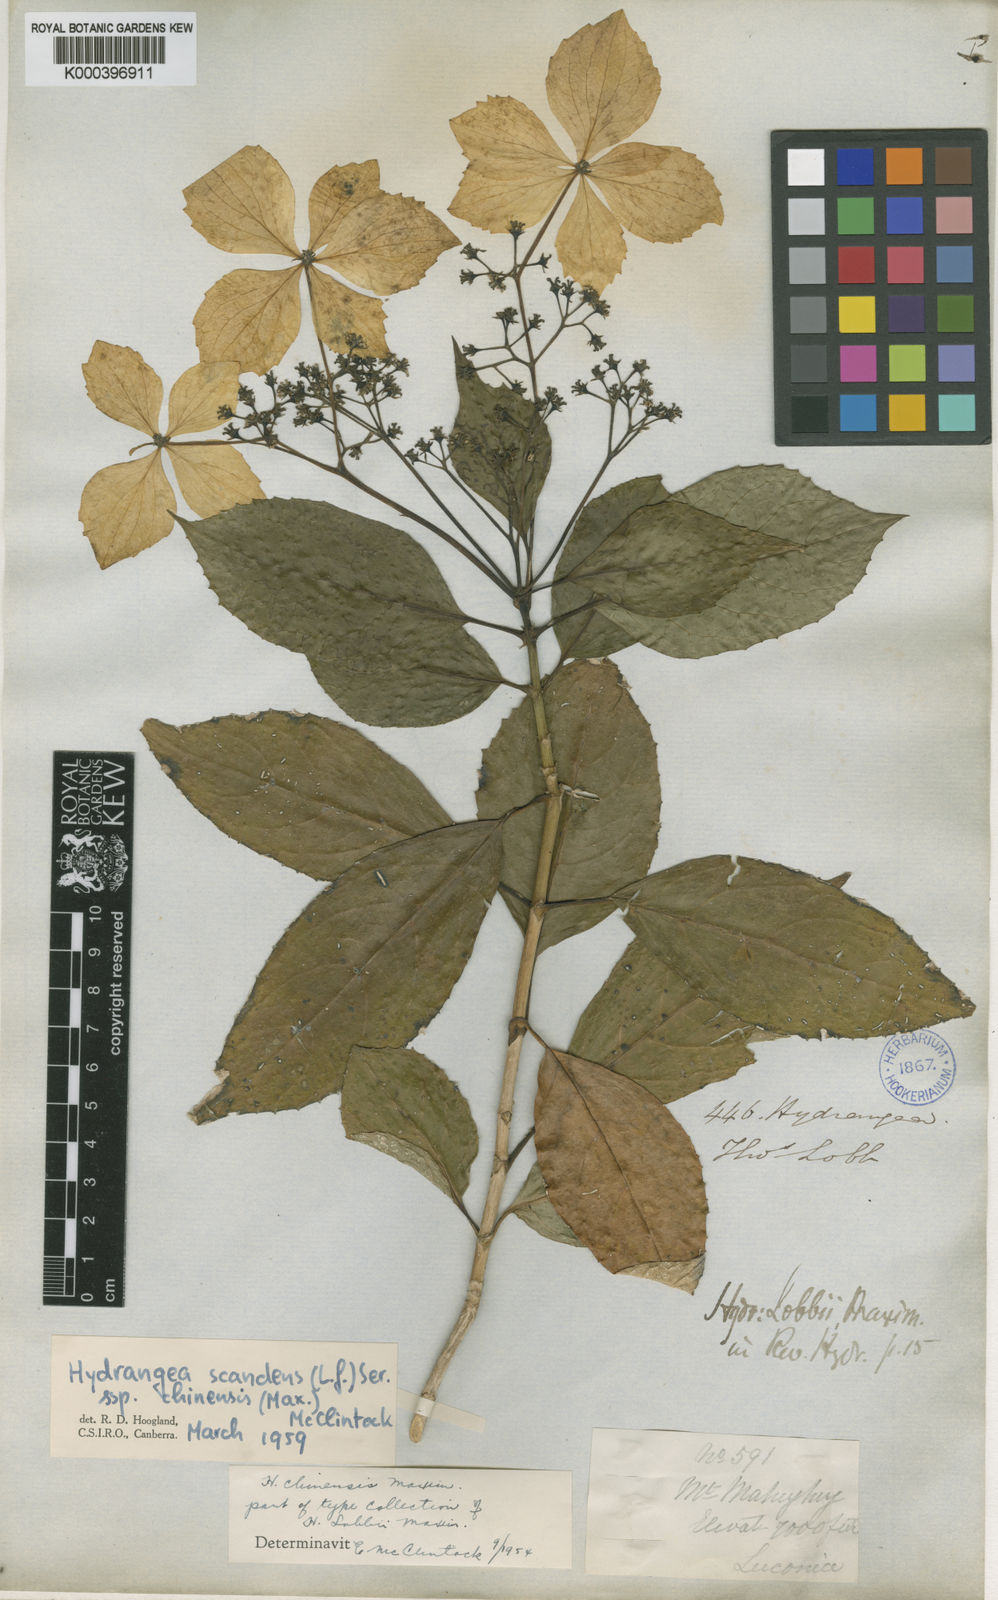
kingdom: Plantae
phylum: Tracheophyta
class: Magnoliopsida
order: Cornales
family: Hydrangeaceae
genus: Hydrangea
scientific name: Hydrangea chinensis
